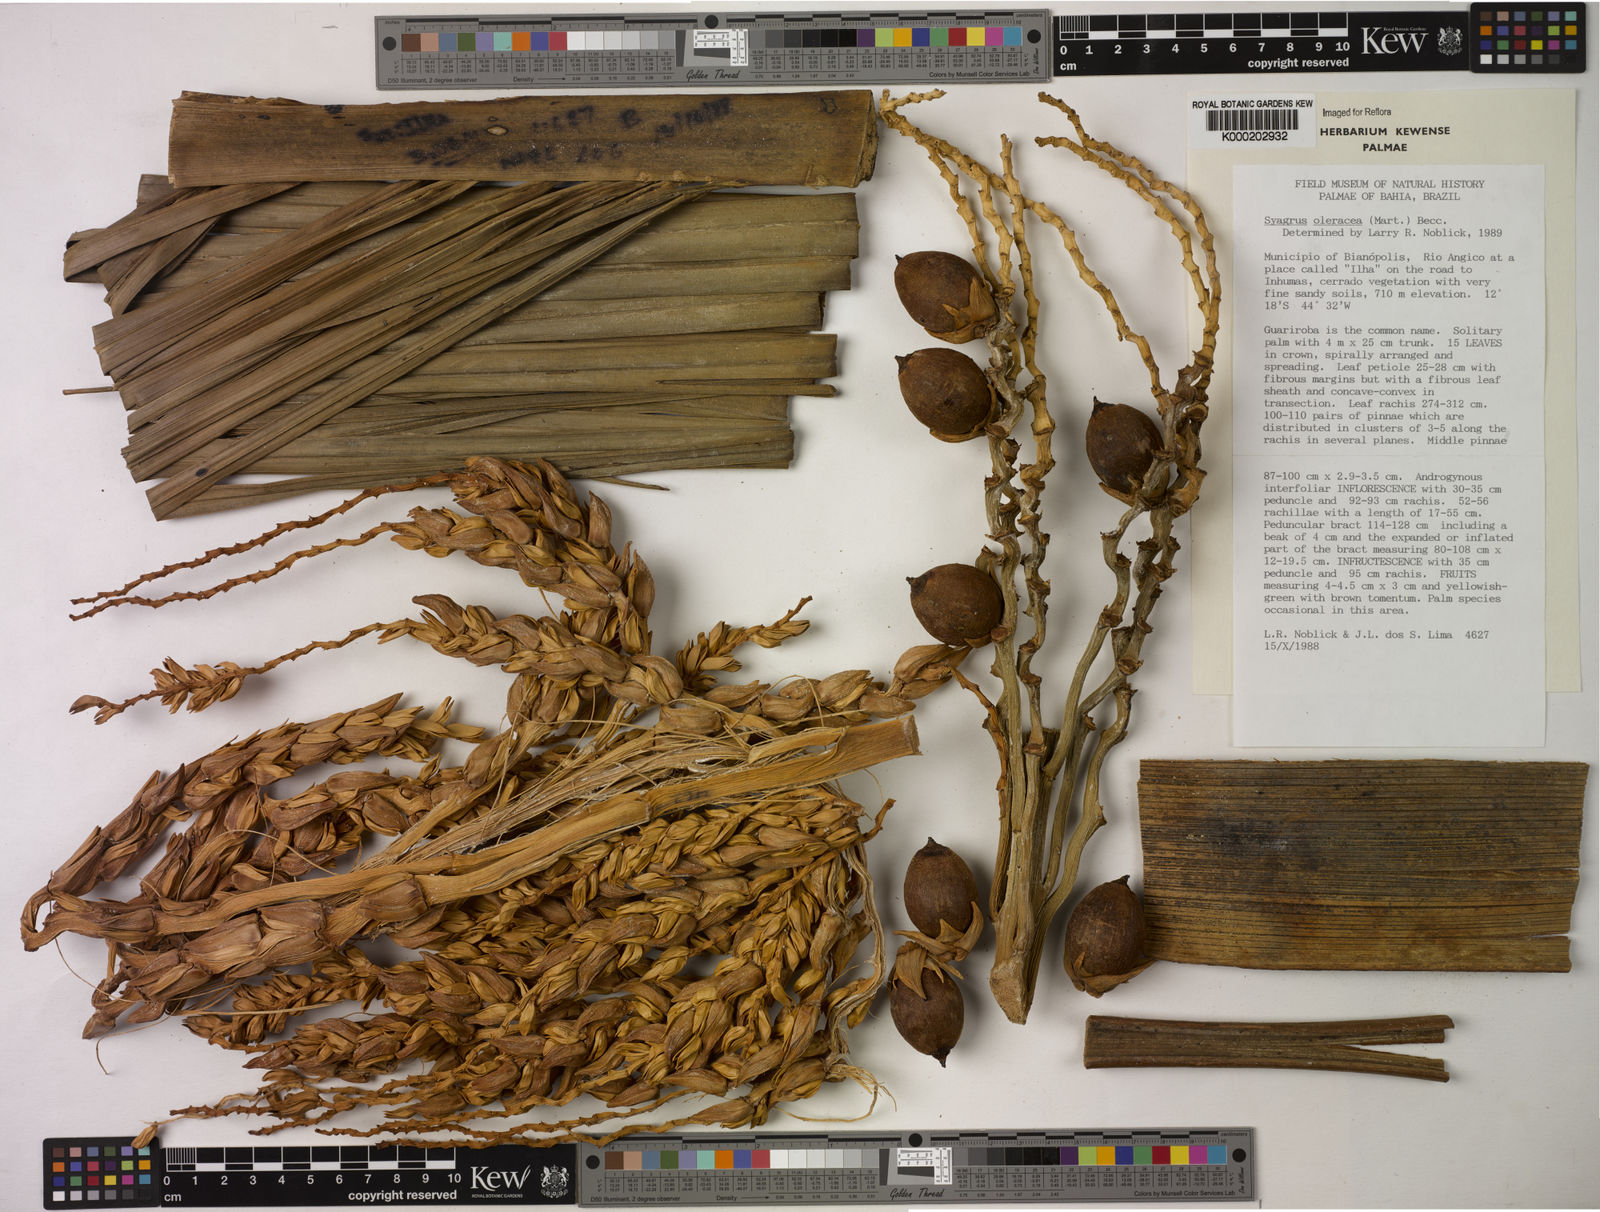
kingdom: Plantae
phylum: Tracheophyta
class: Liliopsida
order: Arecales
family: Arecaceae
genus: Syagrus
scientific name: Syagrus oleracea
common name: Catole palm
